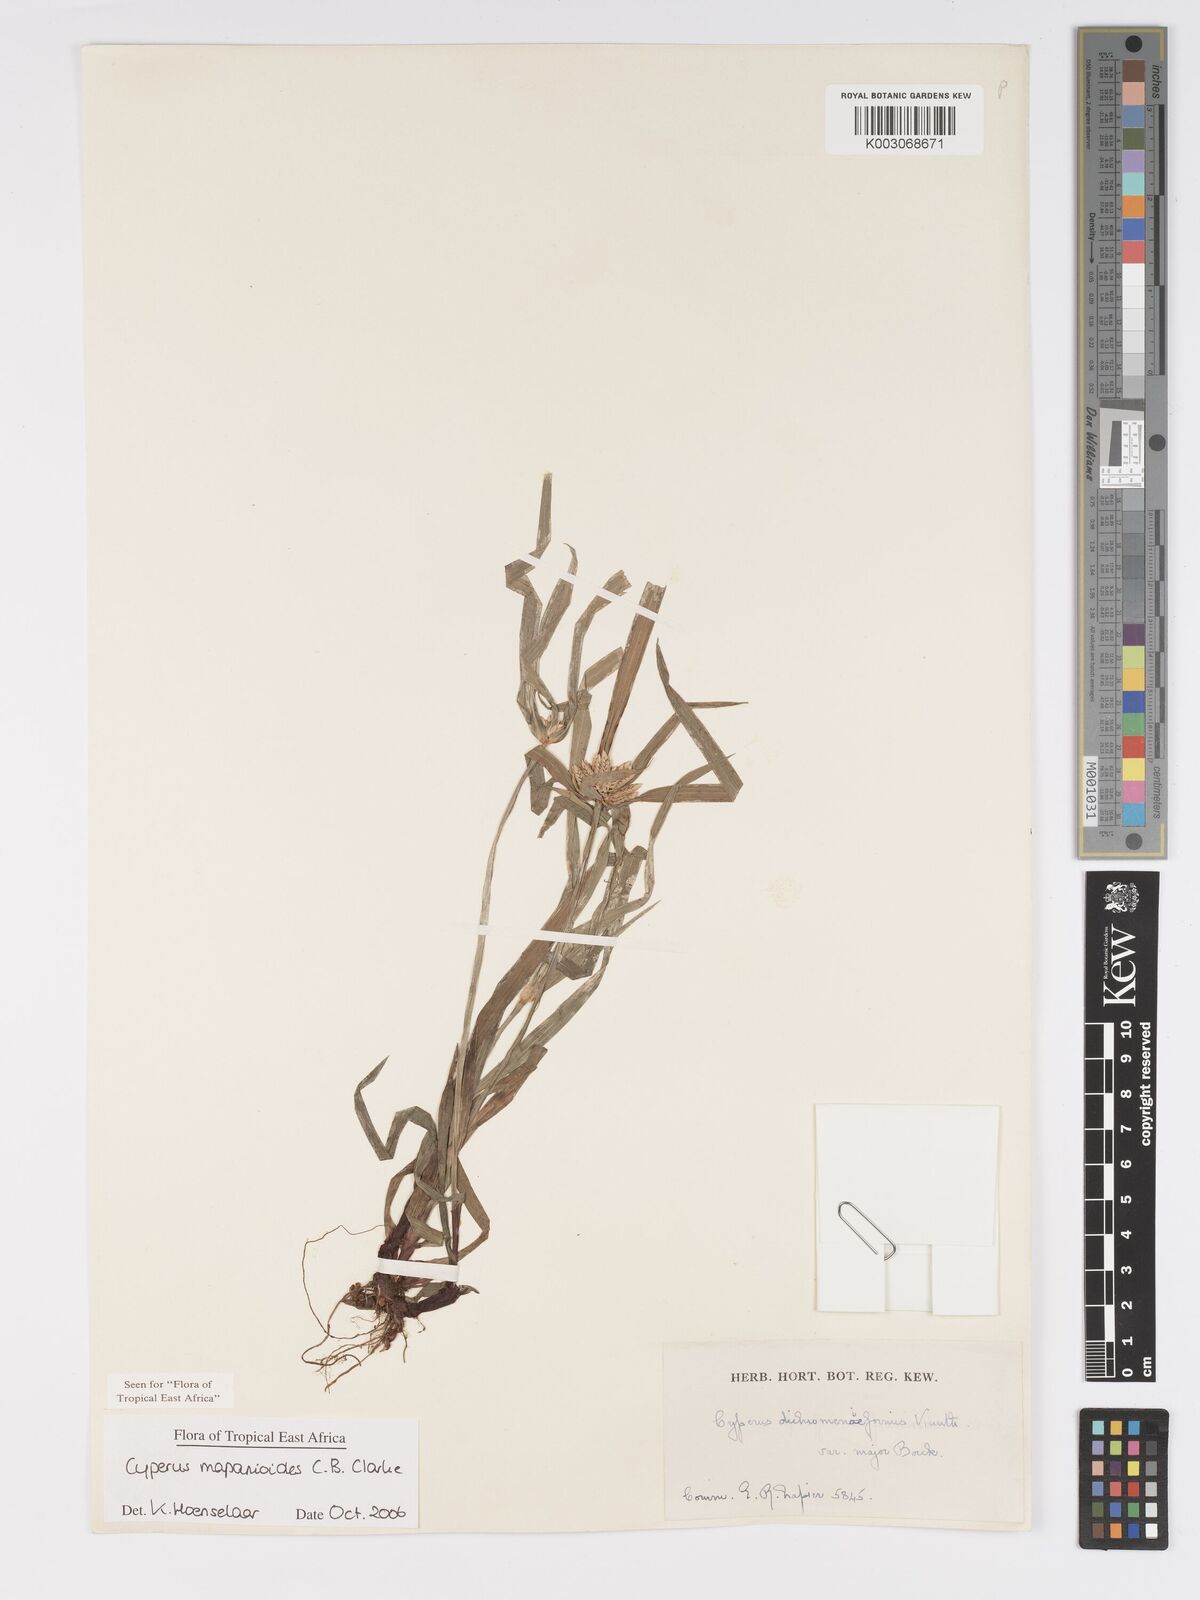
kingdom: Plantae
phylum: Tracheophyta
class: Liliopsida
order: Poales
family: Cyperaceae
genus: Cyperus
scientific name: Cyperus mapanioides
